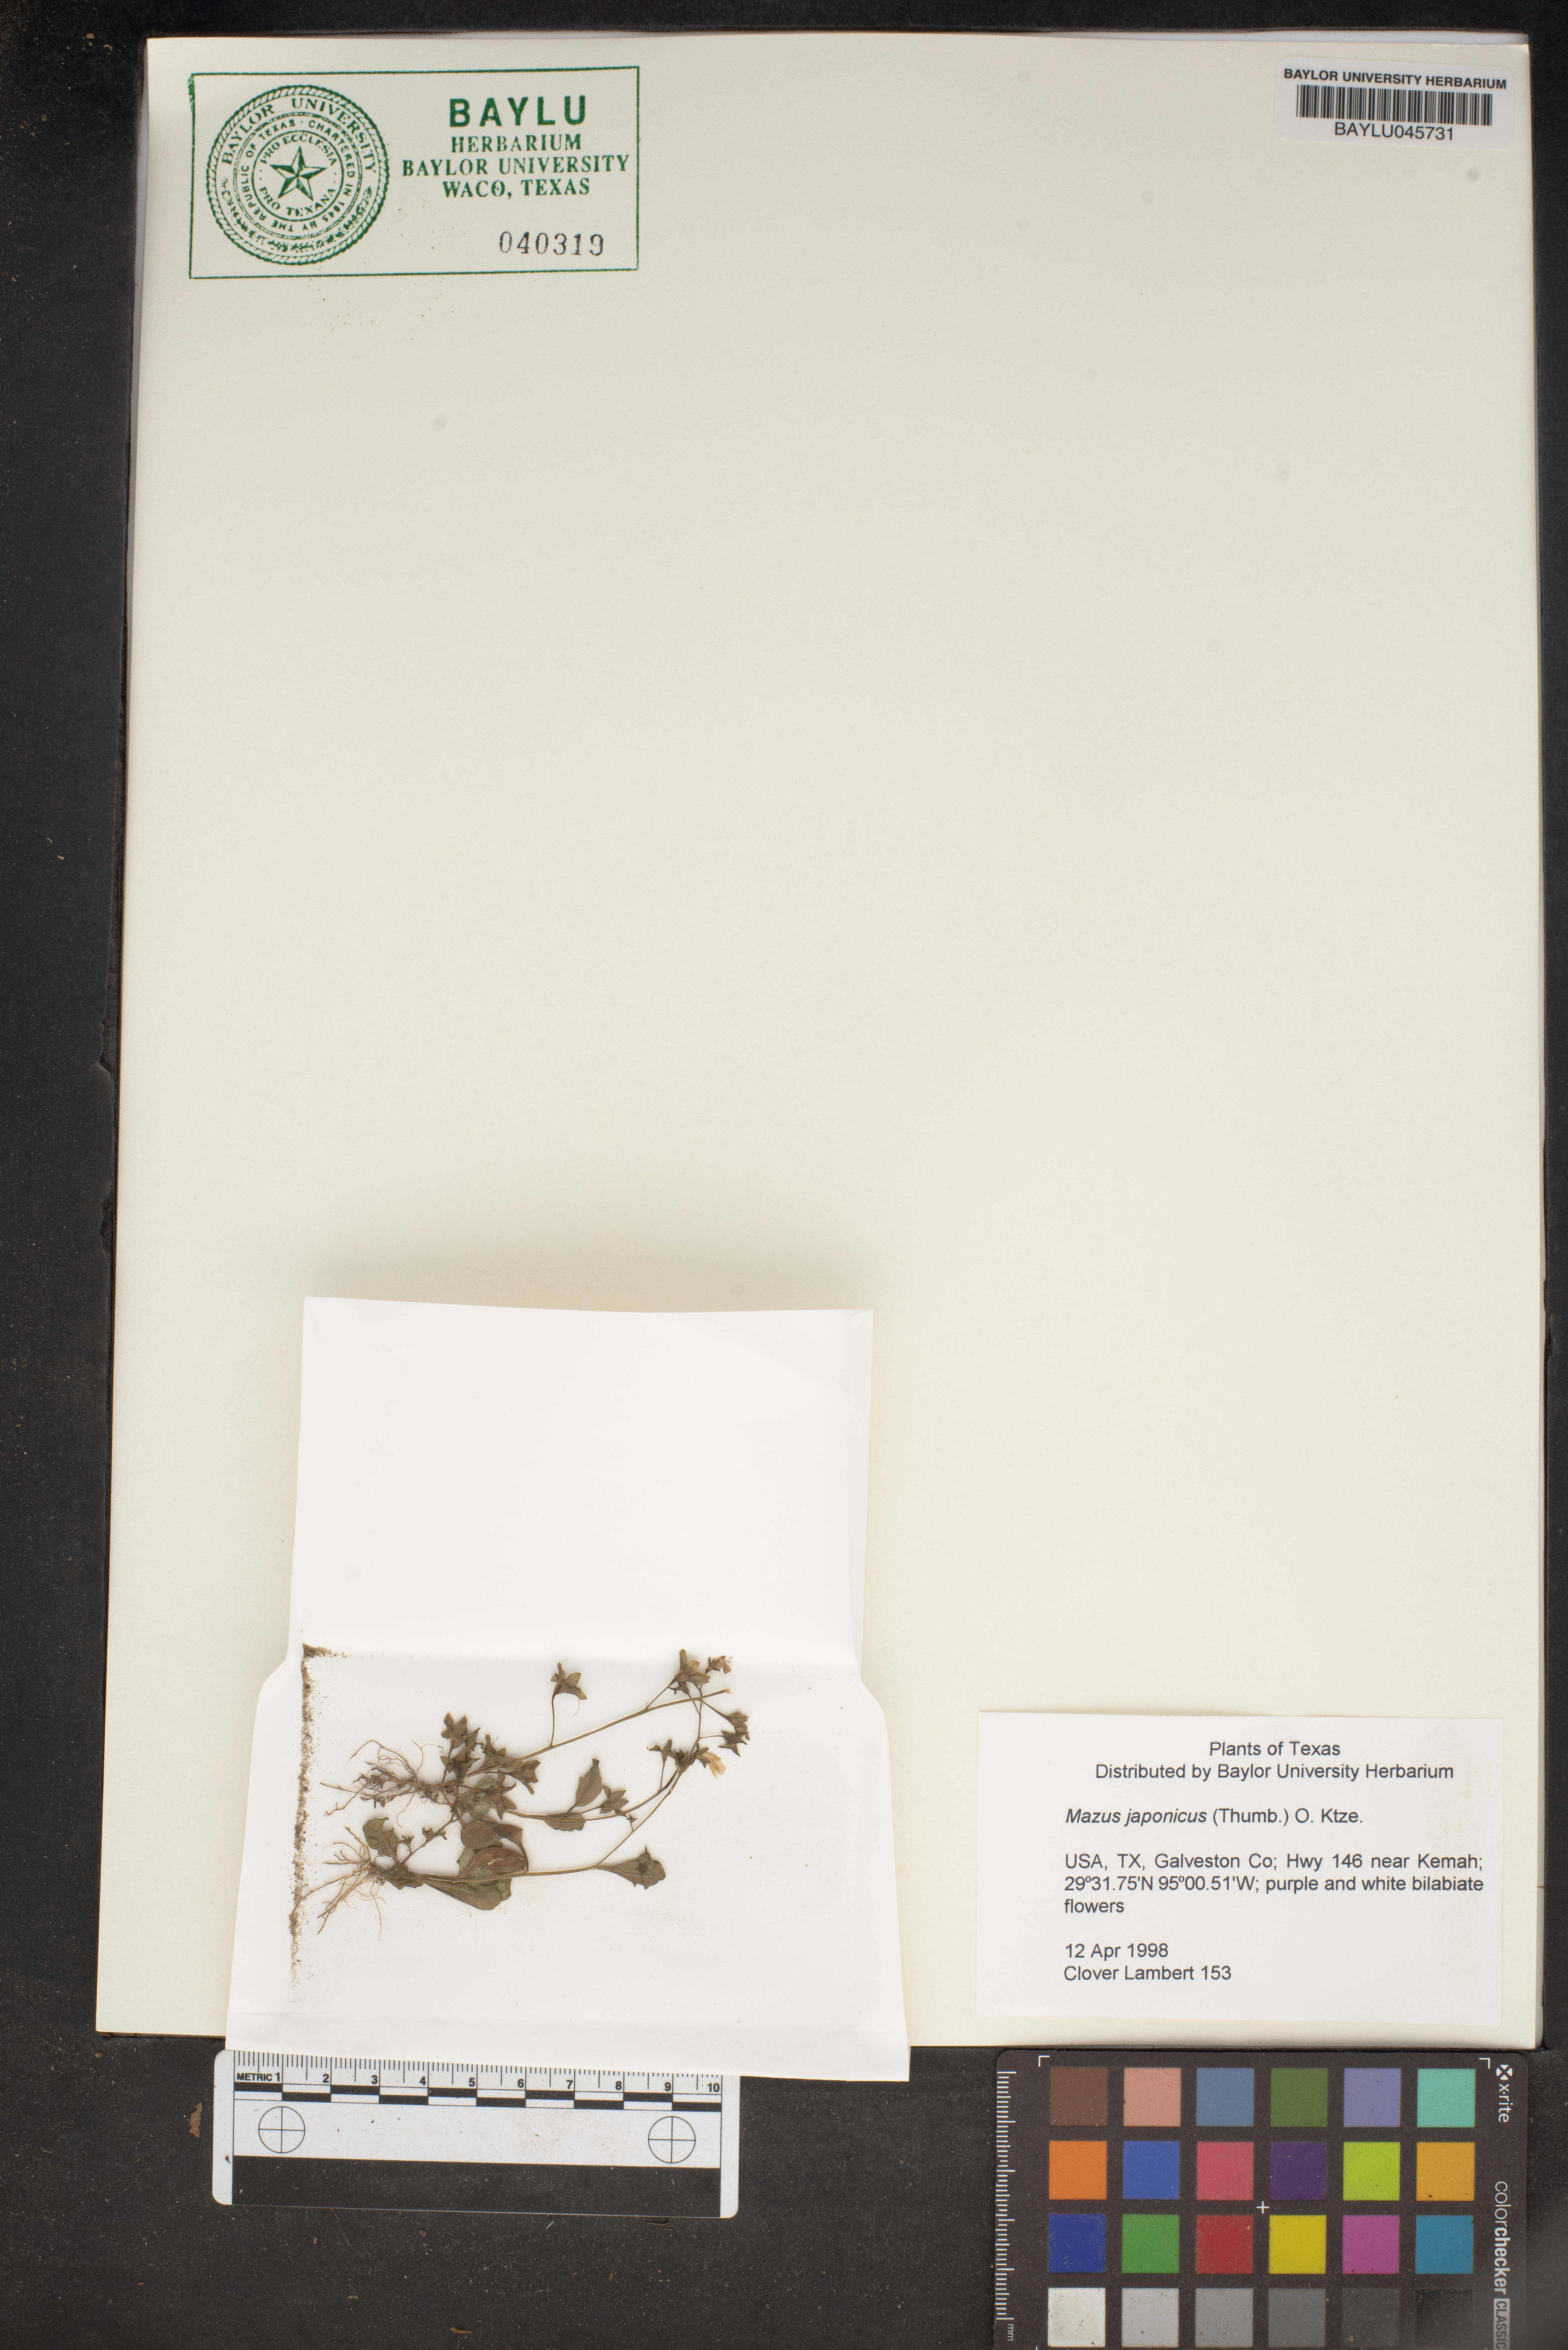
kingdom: Plantae
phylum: Tracheophyta
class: Magnoliopsida
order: Lamiales
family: Mazaceae
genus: Mazus
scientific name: Mazus pumilus
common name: Japanese mazus
